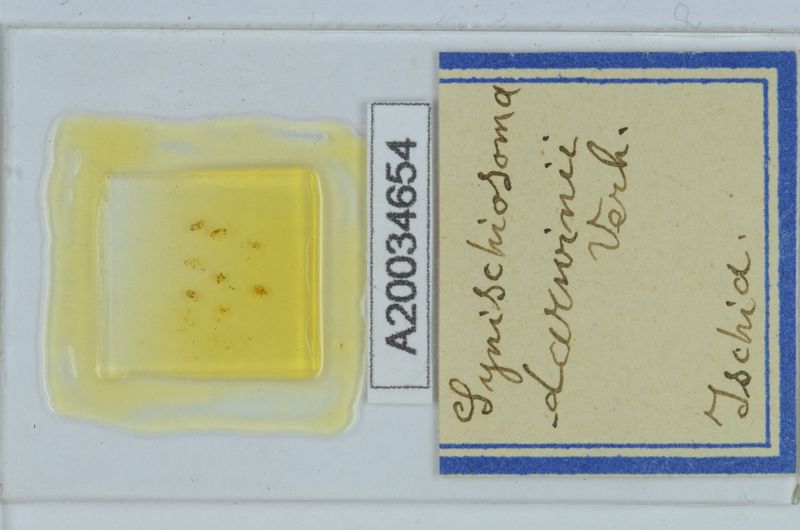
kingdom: Animalia
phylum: Arthropoda
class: Diplopoda
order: Chordeumatida
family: Craspedosomatidae
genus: Synischiosoma
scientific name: Synischiosoma murorum
